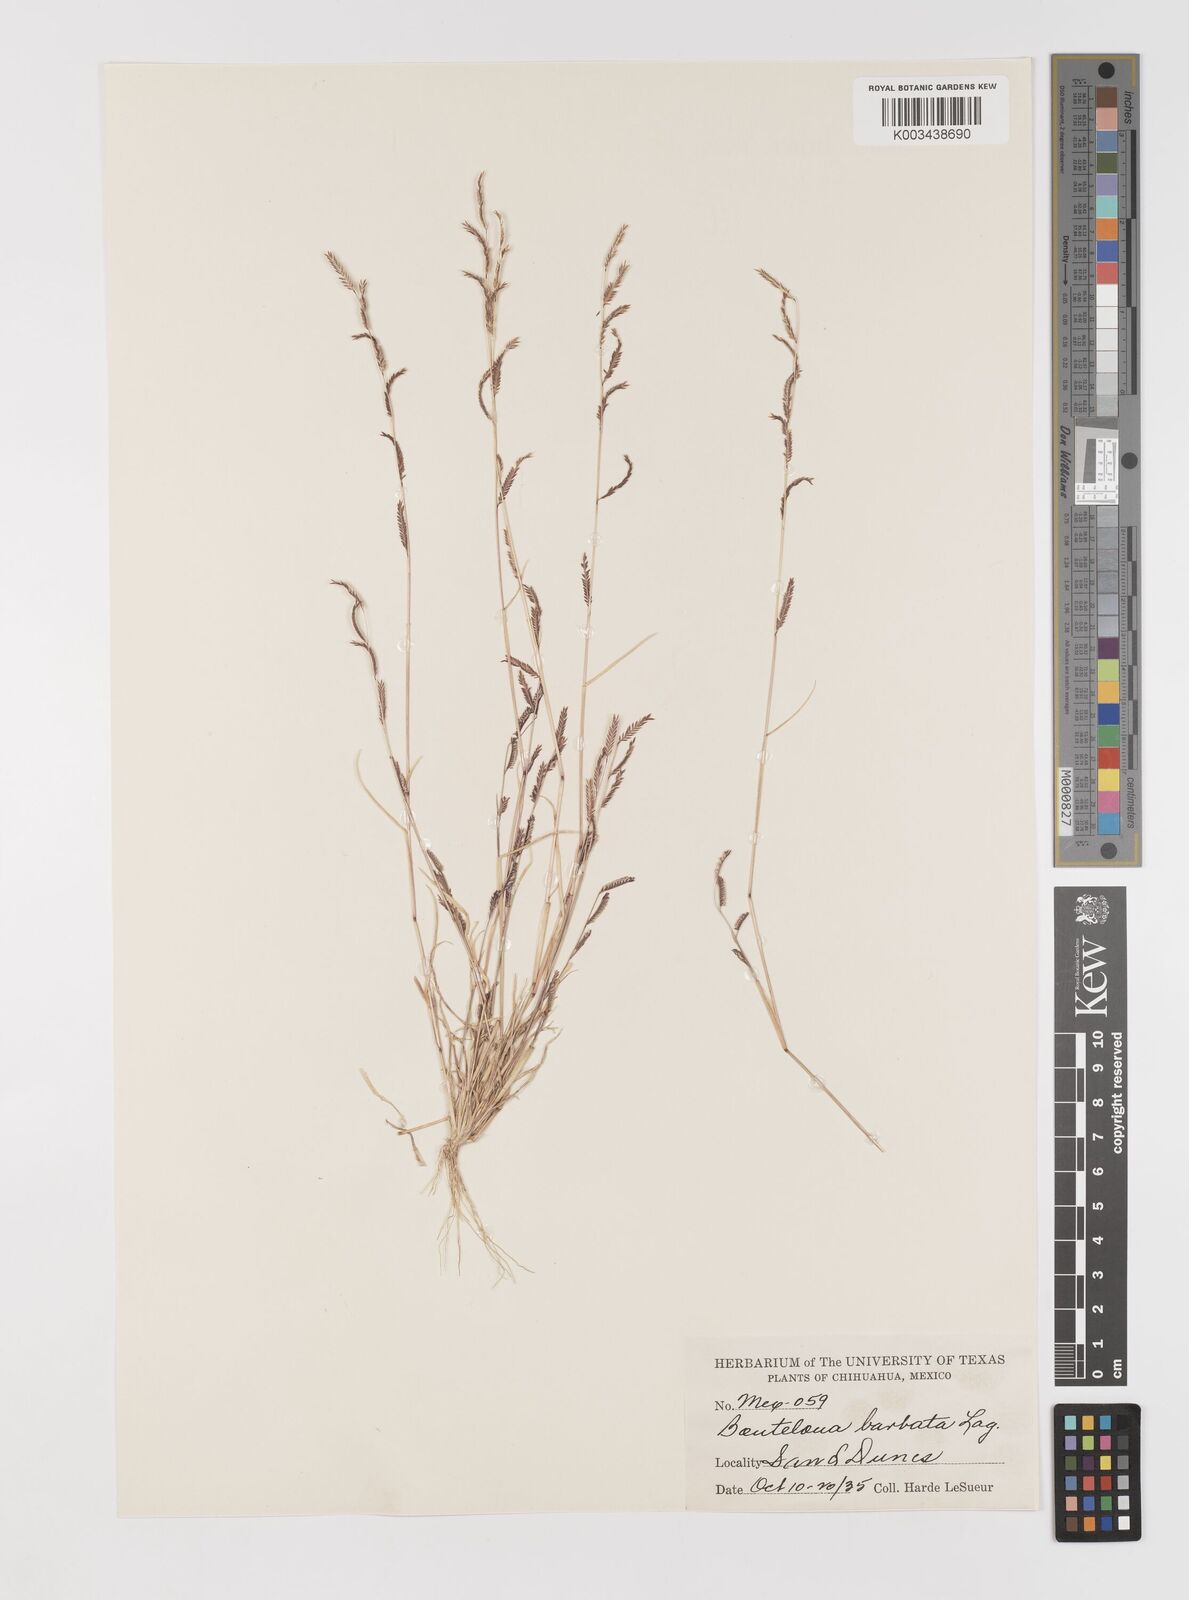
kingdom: Plantae
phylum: Tracheophyta
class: Liliopsida
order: Poales
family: Poaceae
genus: Bouteloua
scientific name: Bouteloua
